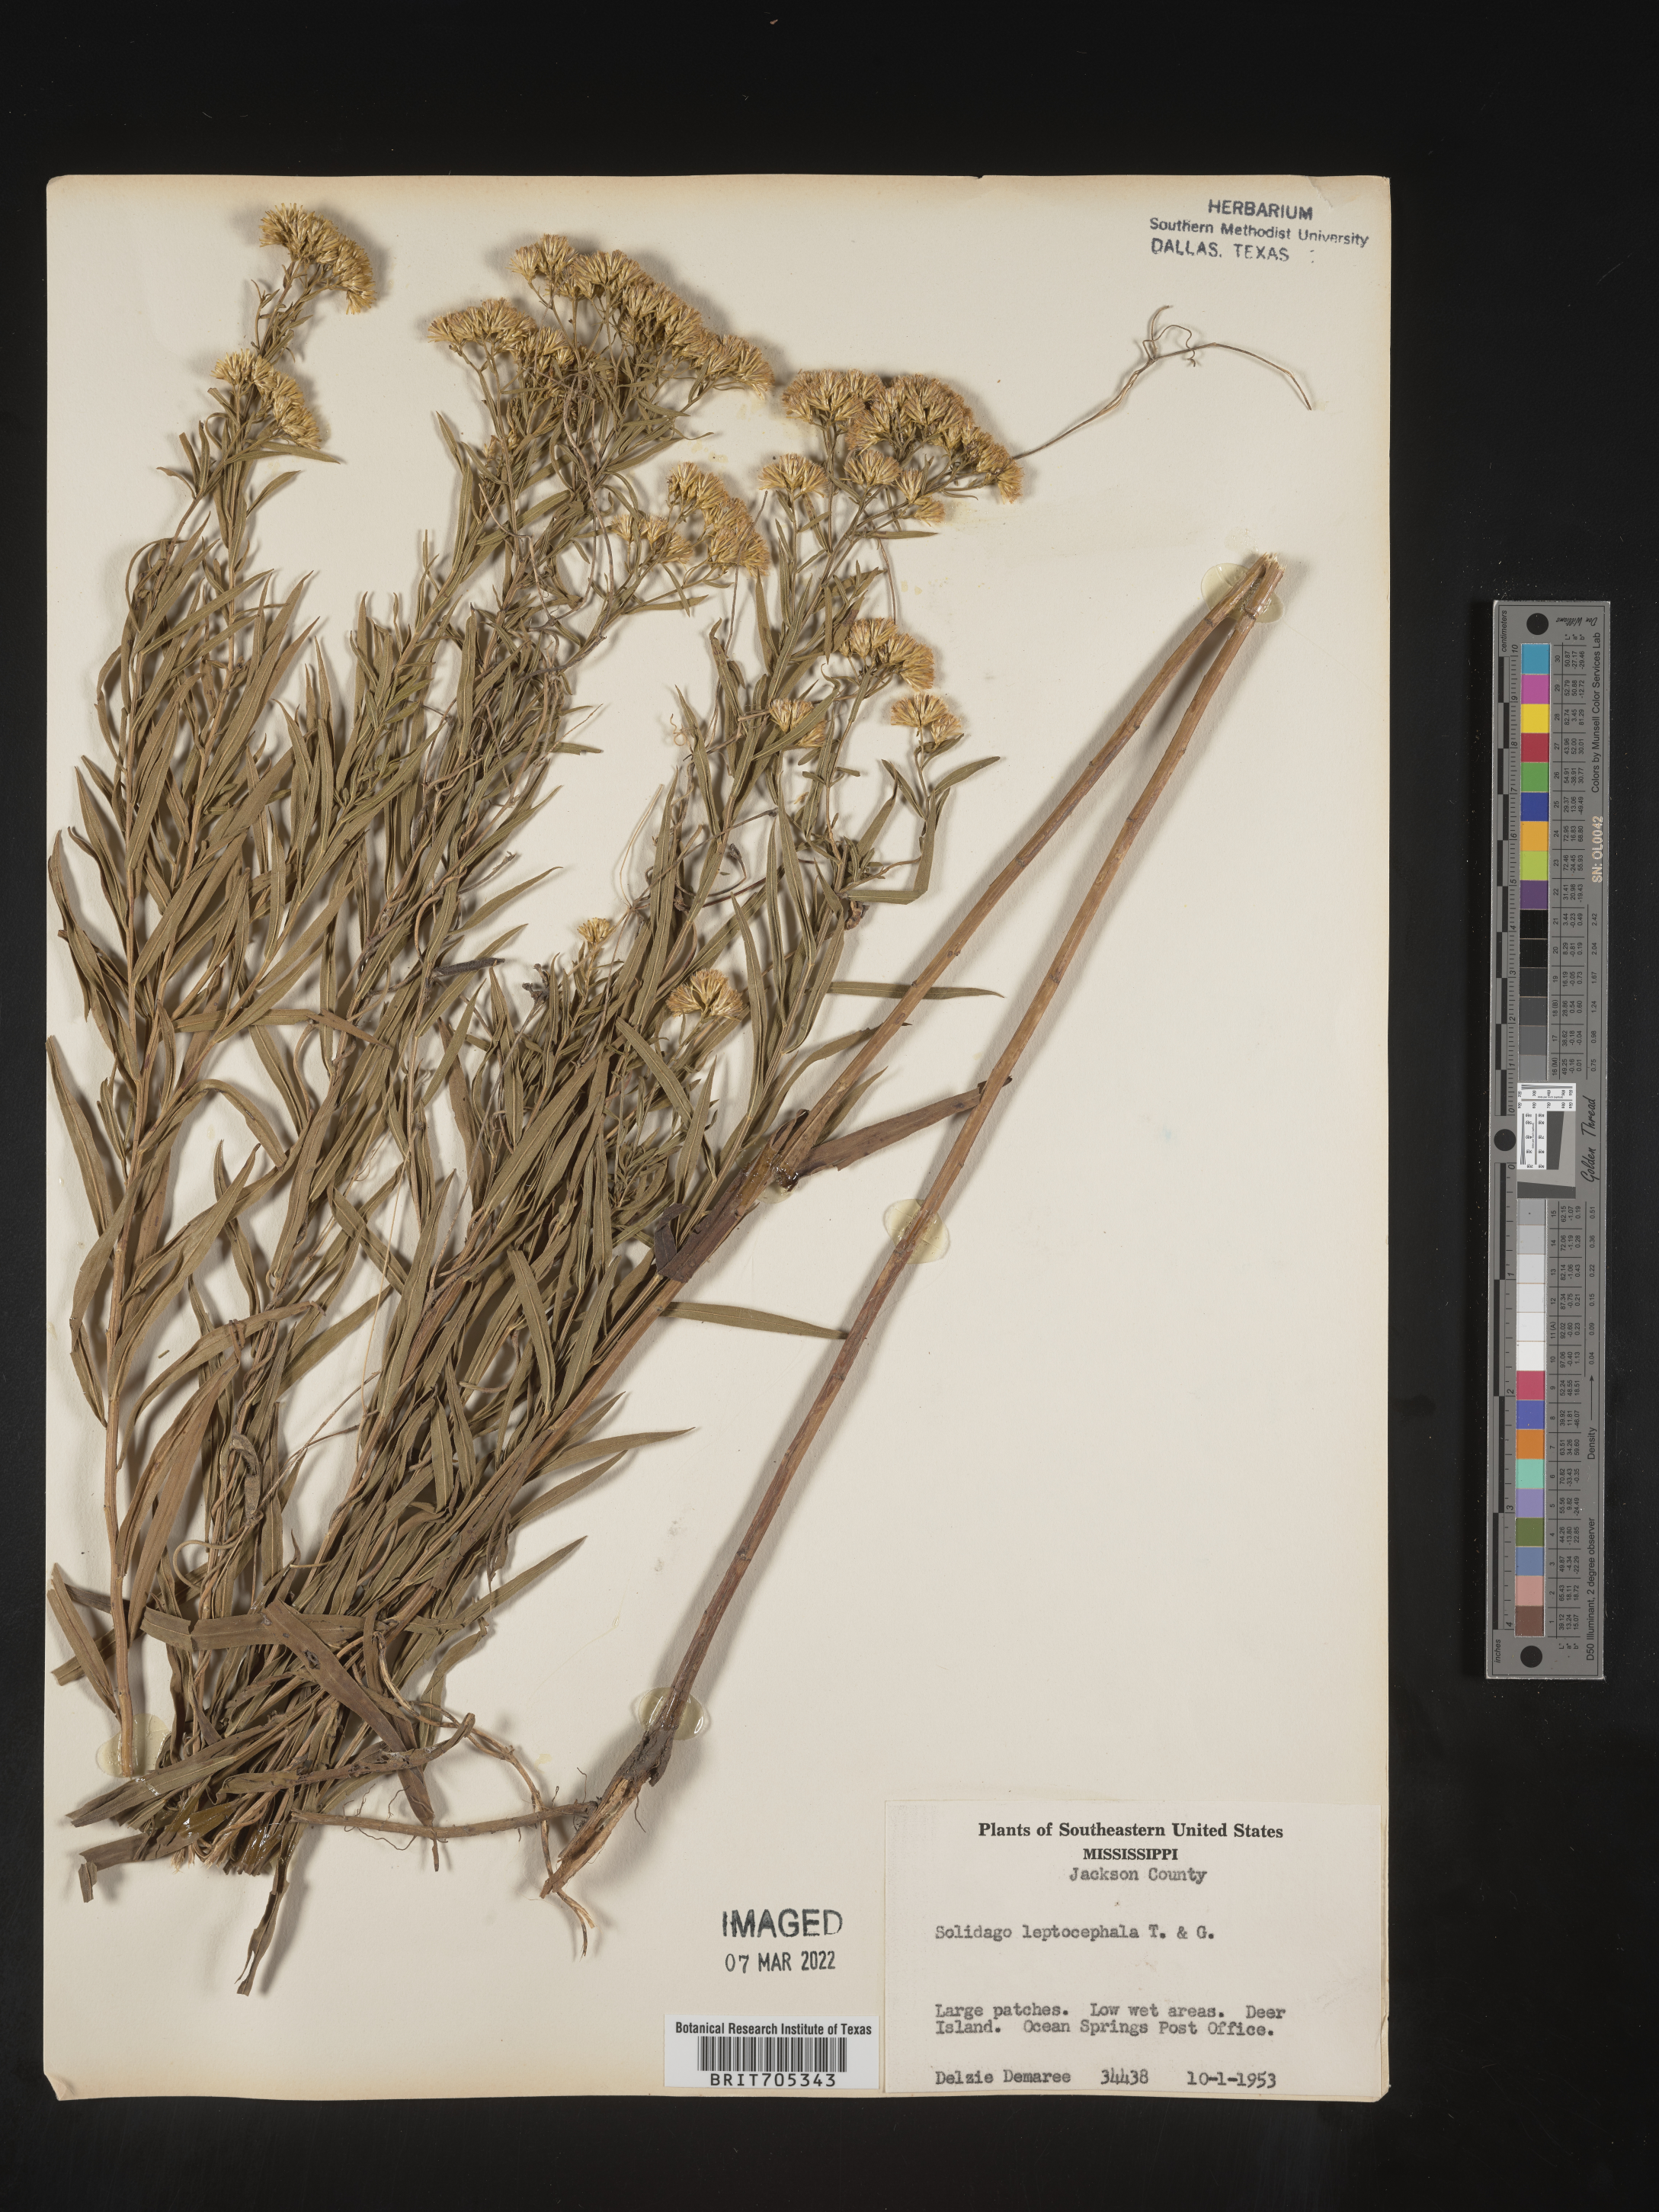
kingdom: Plantae
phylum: Tracheophyta
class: Magnoliopsida
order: Asterales
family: Asteraceae
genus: Euthamia
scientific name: Euthamia leptocephala
